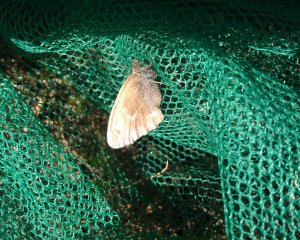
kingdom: Animalia
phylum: Arthropoda
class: Insecta
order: Lepidoptera
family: Nymphalidae
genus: Coenonympha
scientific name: Coenonympha tullia
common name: Large Heath
